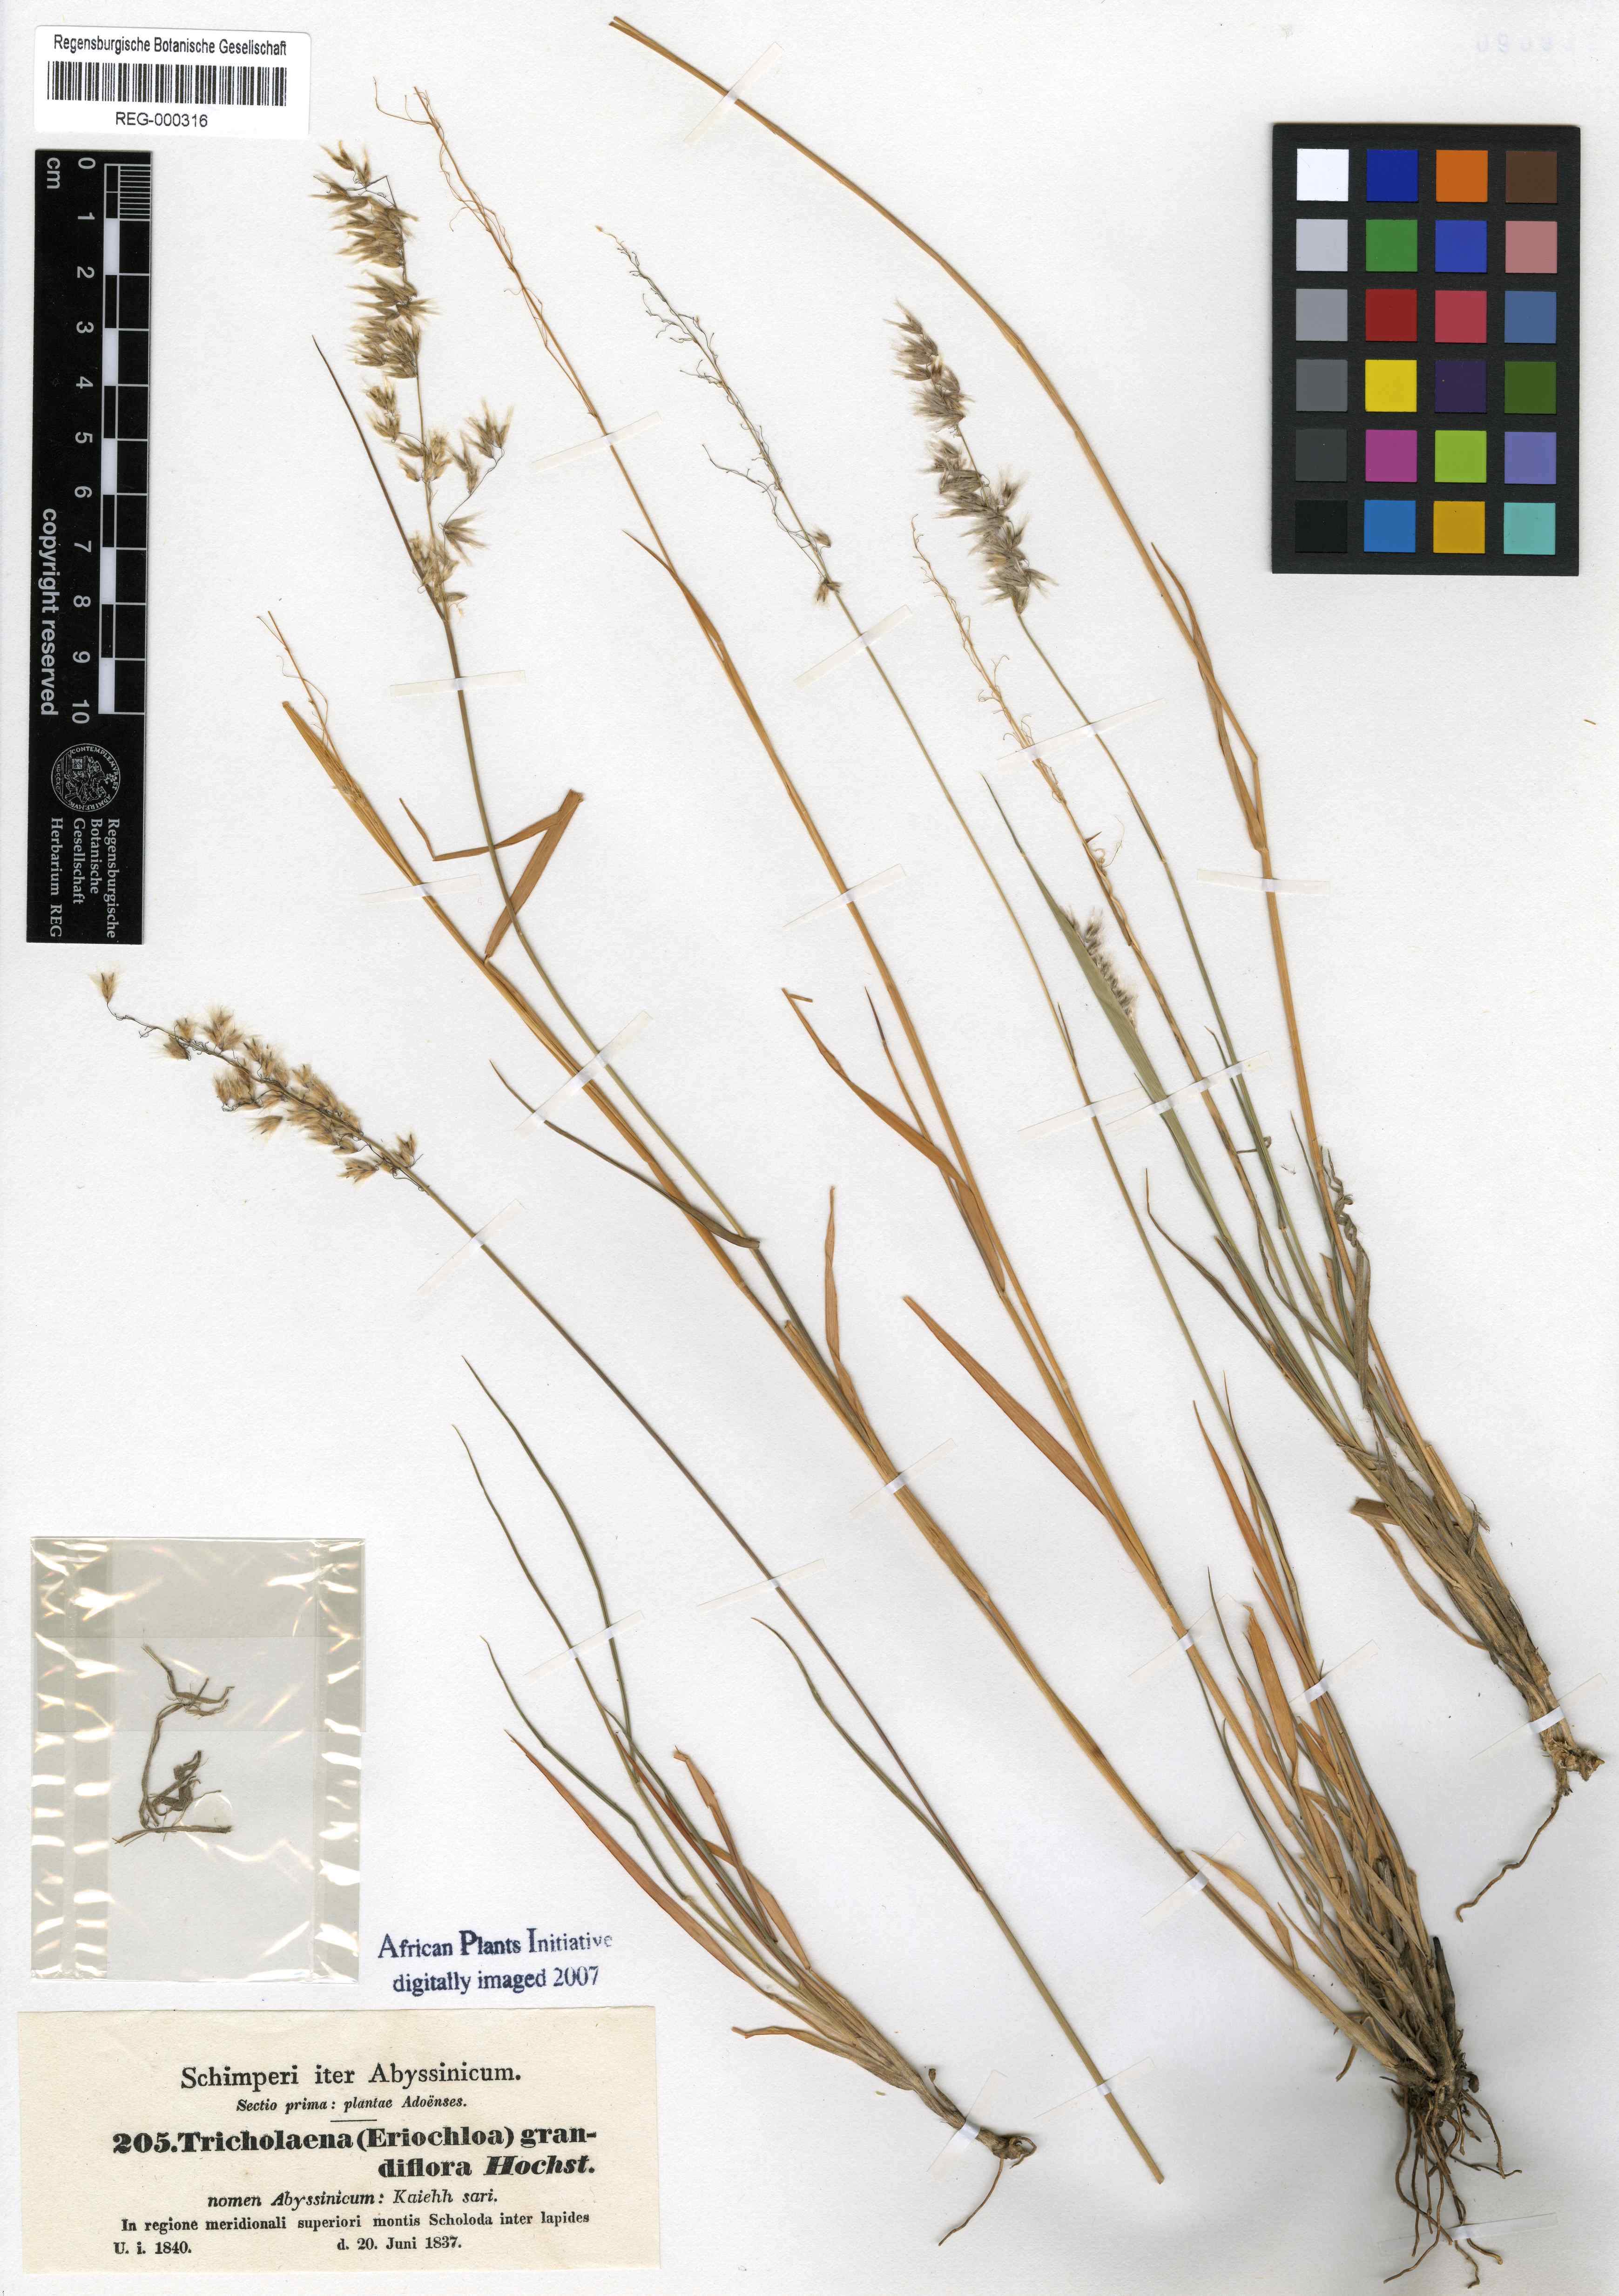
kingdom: Plantae
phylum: Tracheophyta
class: Liliopsida
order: Poales
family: Poaceae
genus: Melinis
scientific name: Melinis repens
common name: Rose natal grass
